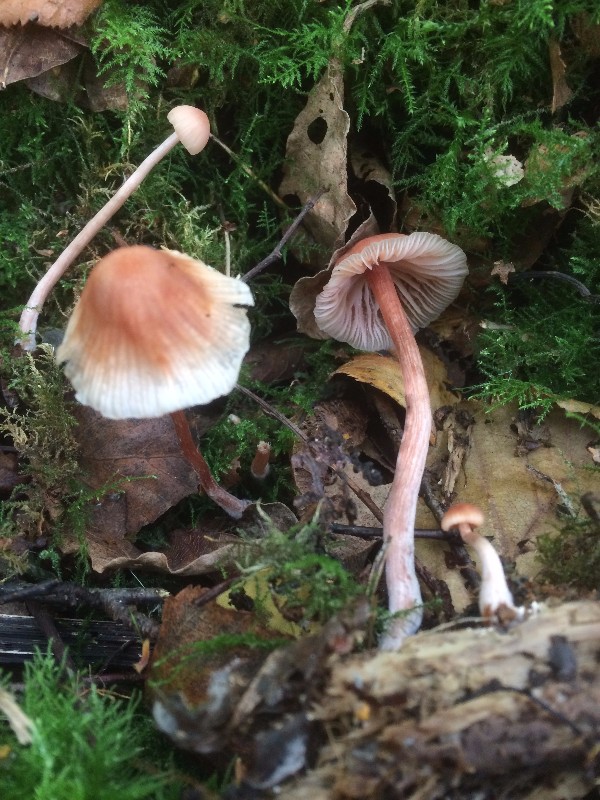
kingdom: Fungi
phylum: Basidiomycota
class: Agaricomycetes
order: Agaricales
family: Hydnangiaceae
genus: Laccaria
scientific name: Laccaria laccata
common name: rød ametysthat
